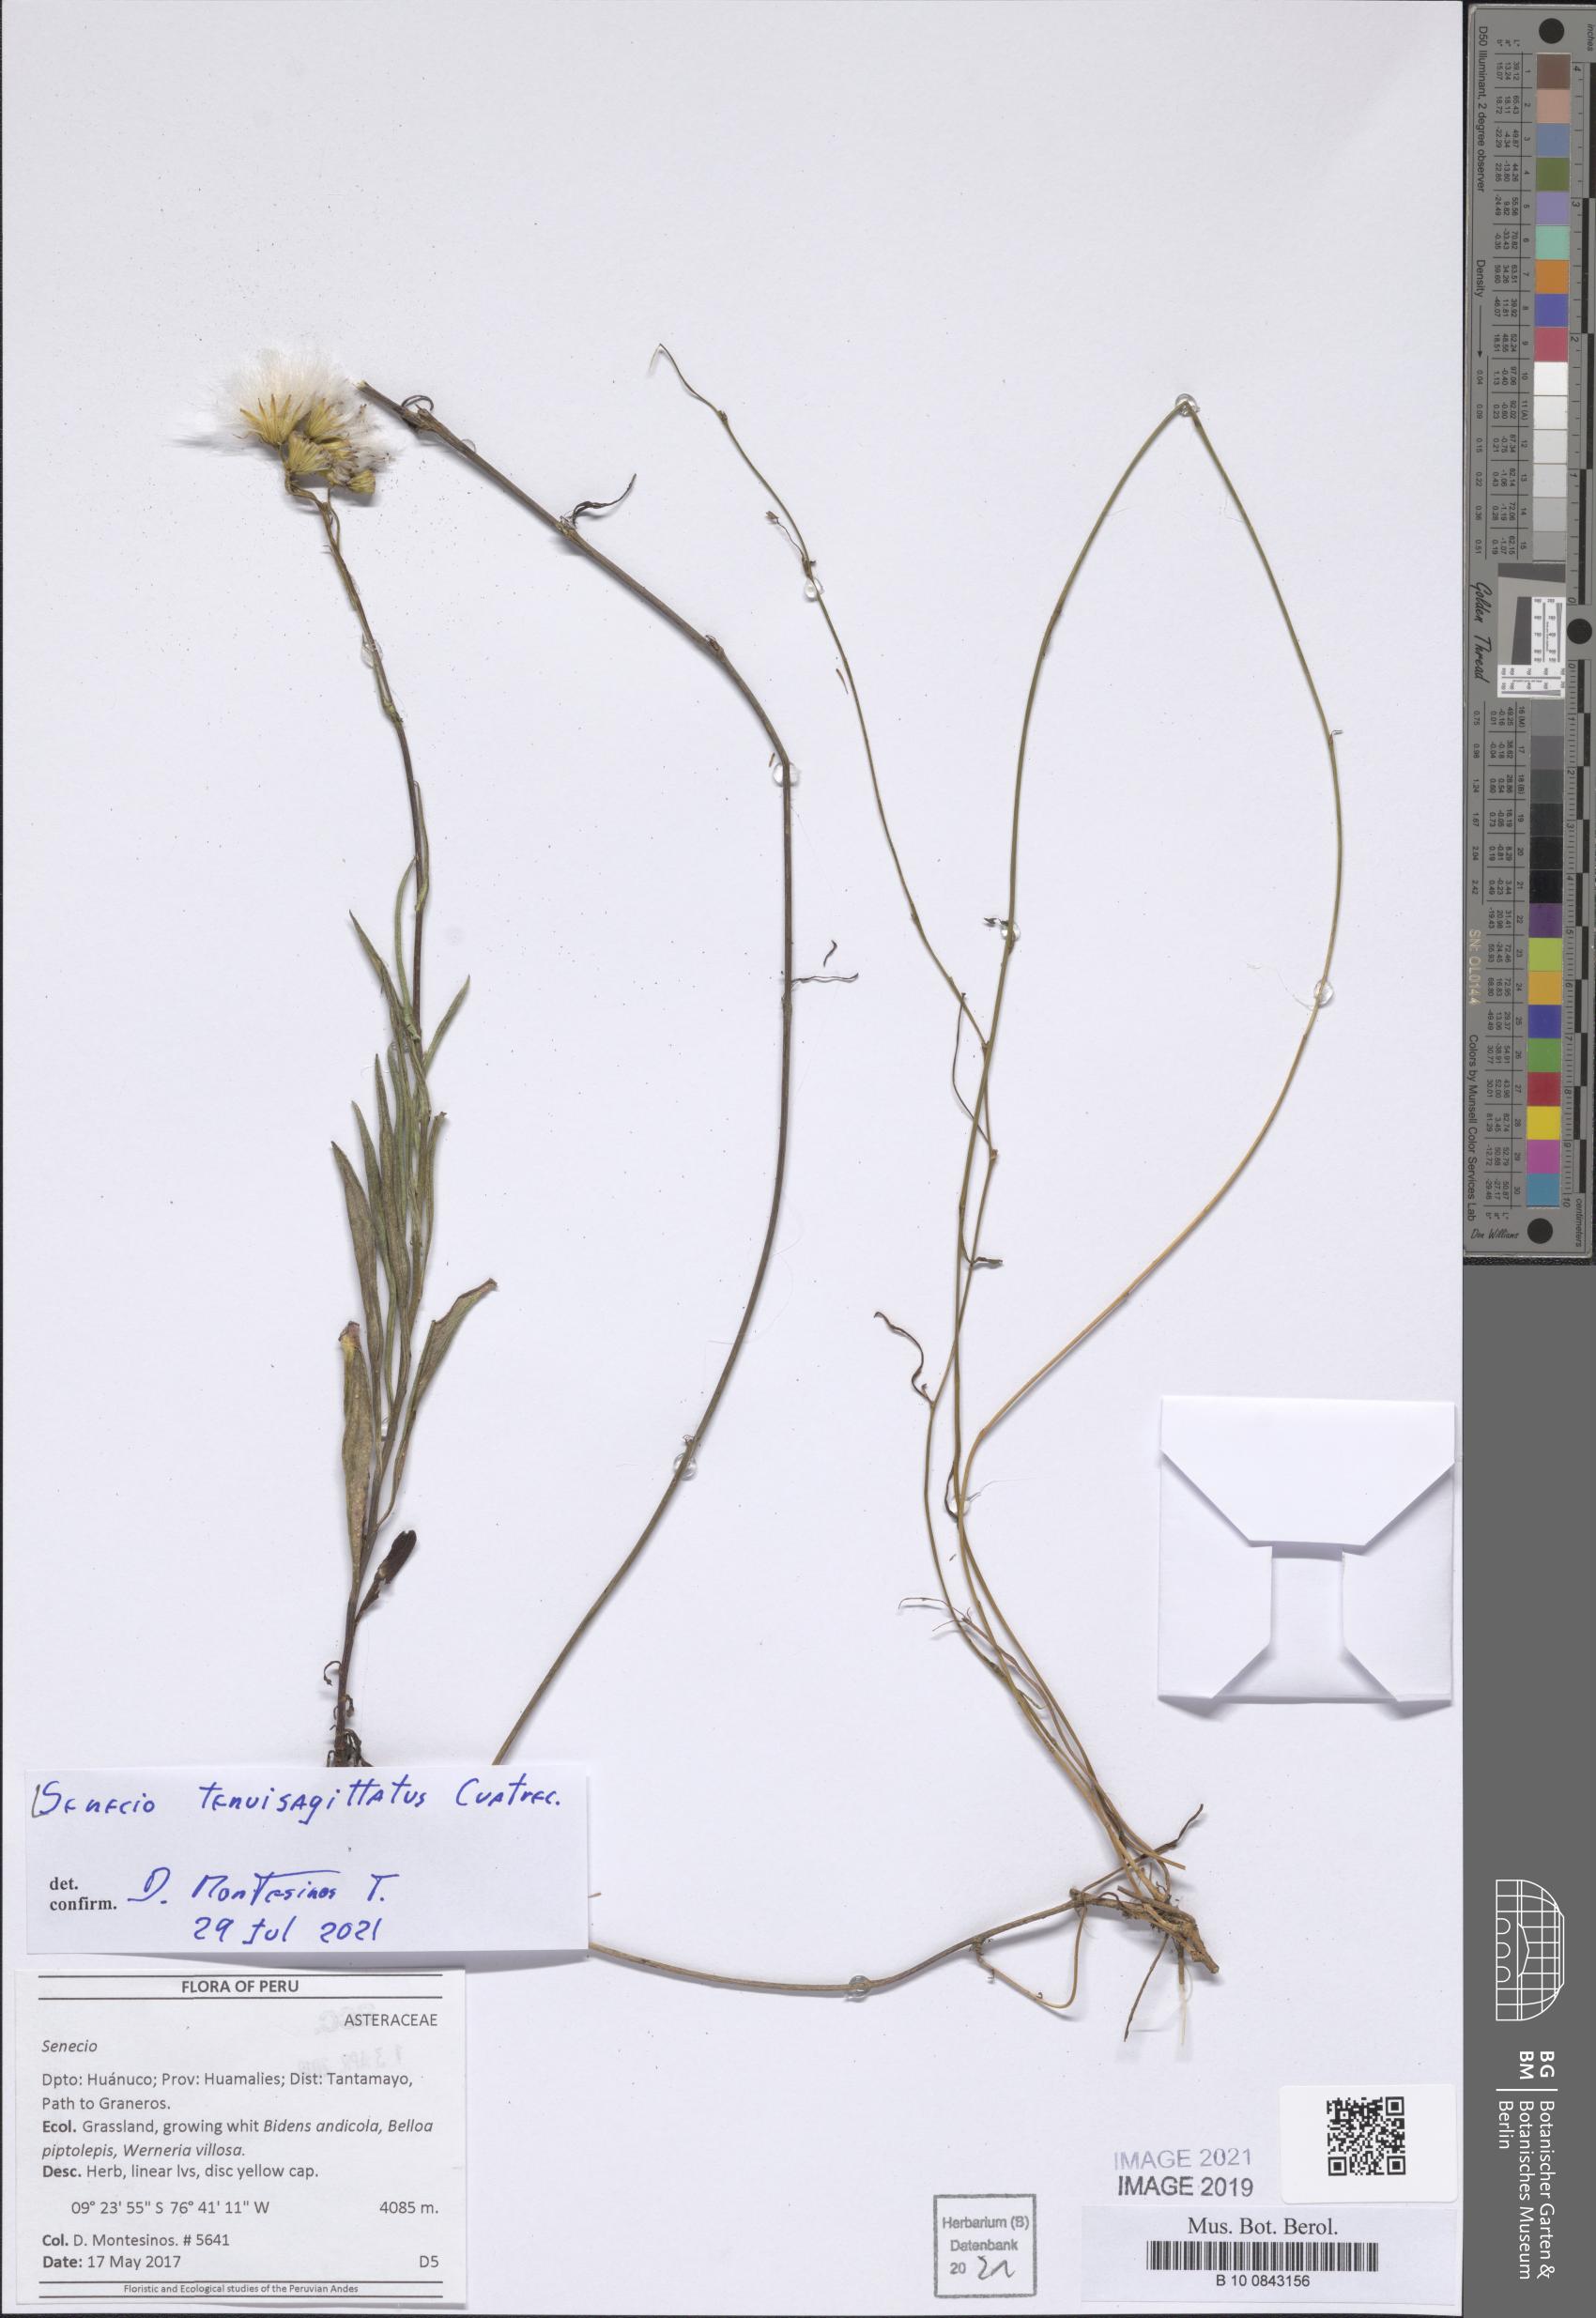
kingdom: Plantae
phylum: Tracheophyta
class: Magnoliopsida
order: Asterales
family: Asteraceae
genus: Senecio
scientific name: Senecio tenuisagittatus
